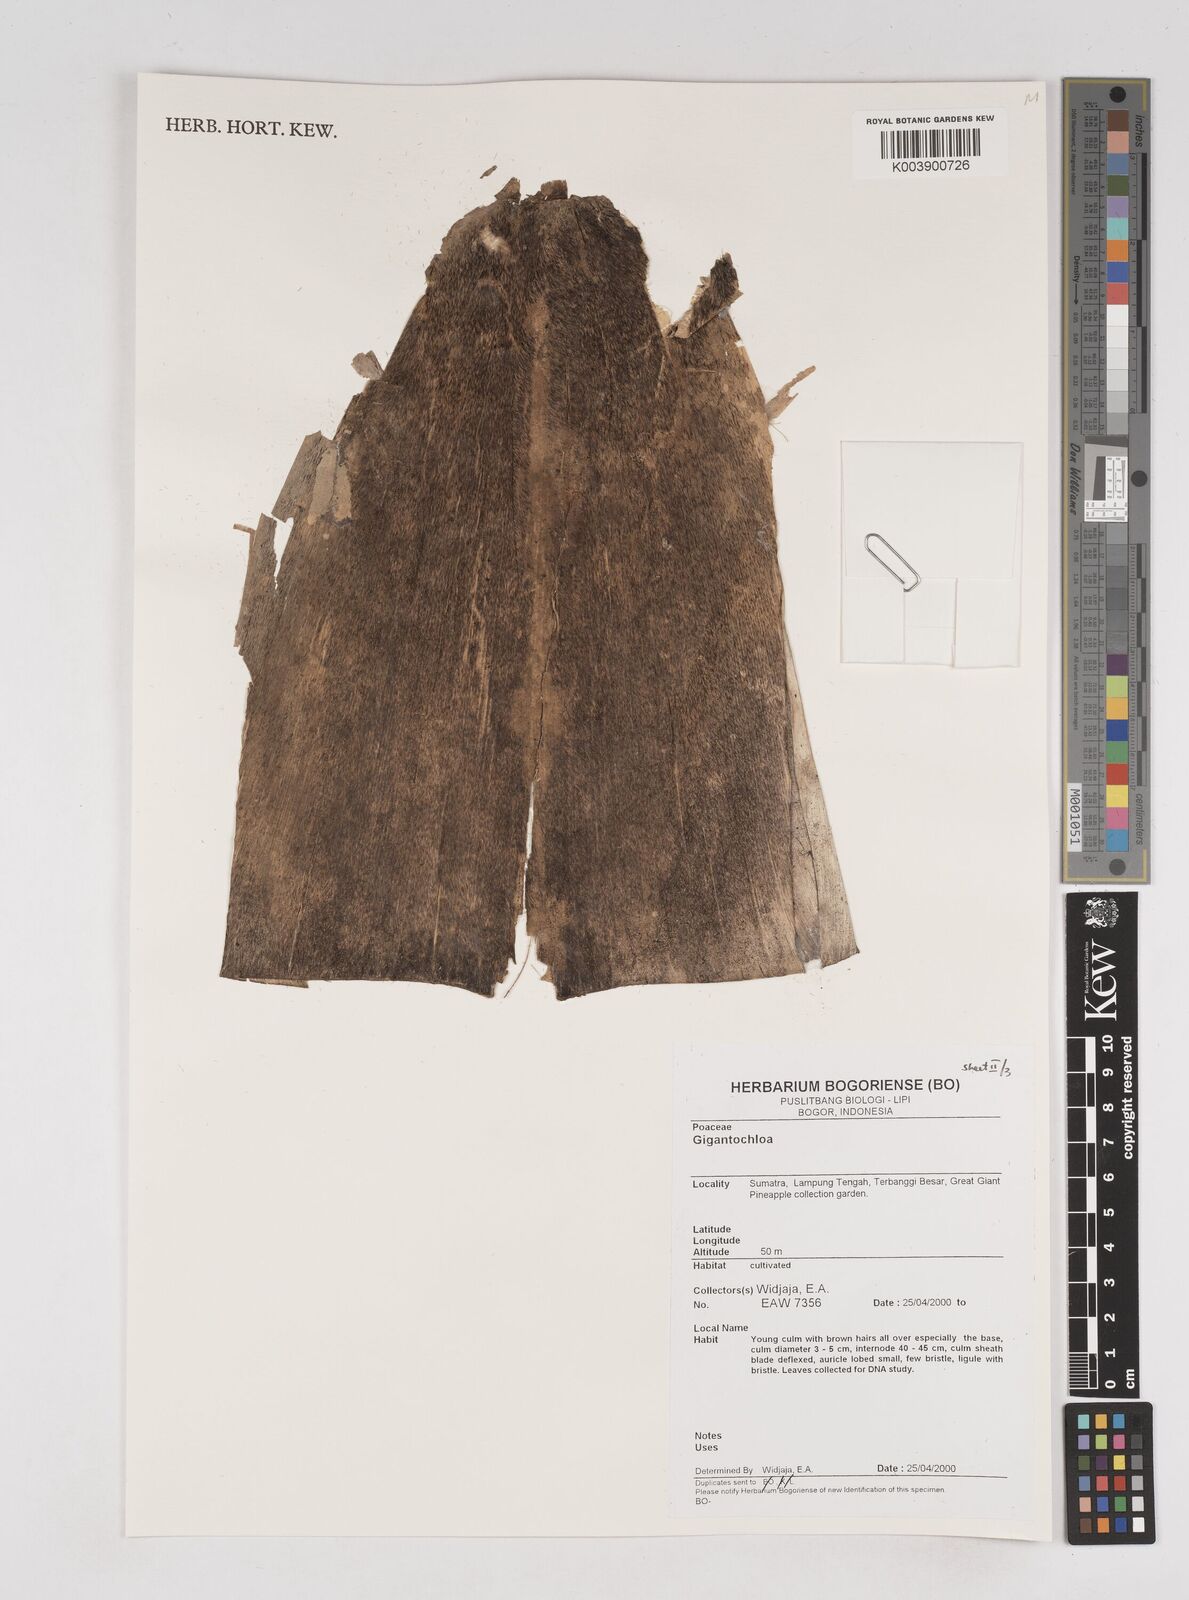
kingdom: Plantae
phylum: Tracheophyta
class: Liliopsida
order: Poales
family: Poaceae
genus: Gigantochloa
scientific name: Gigantochloa
